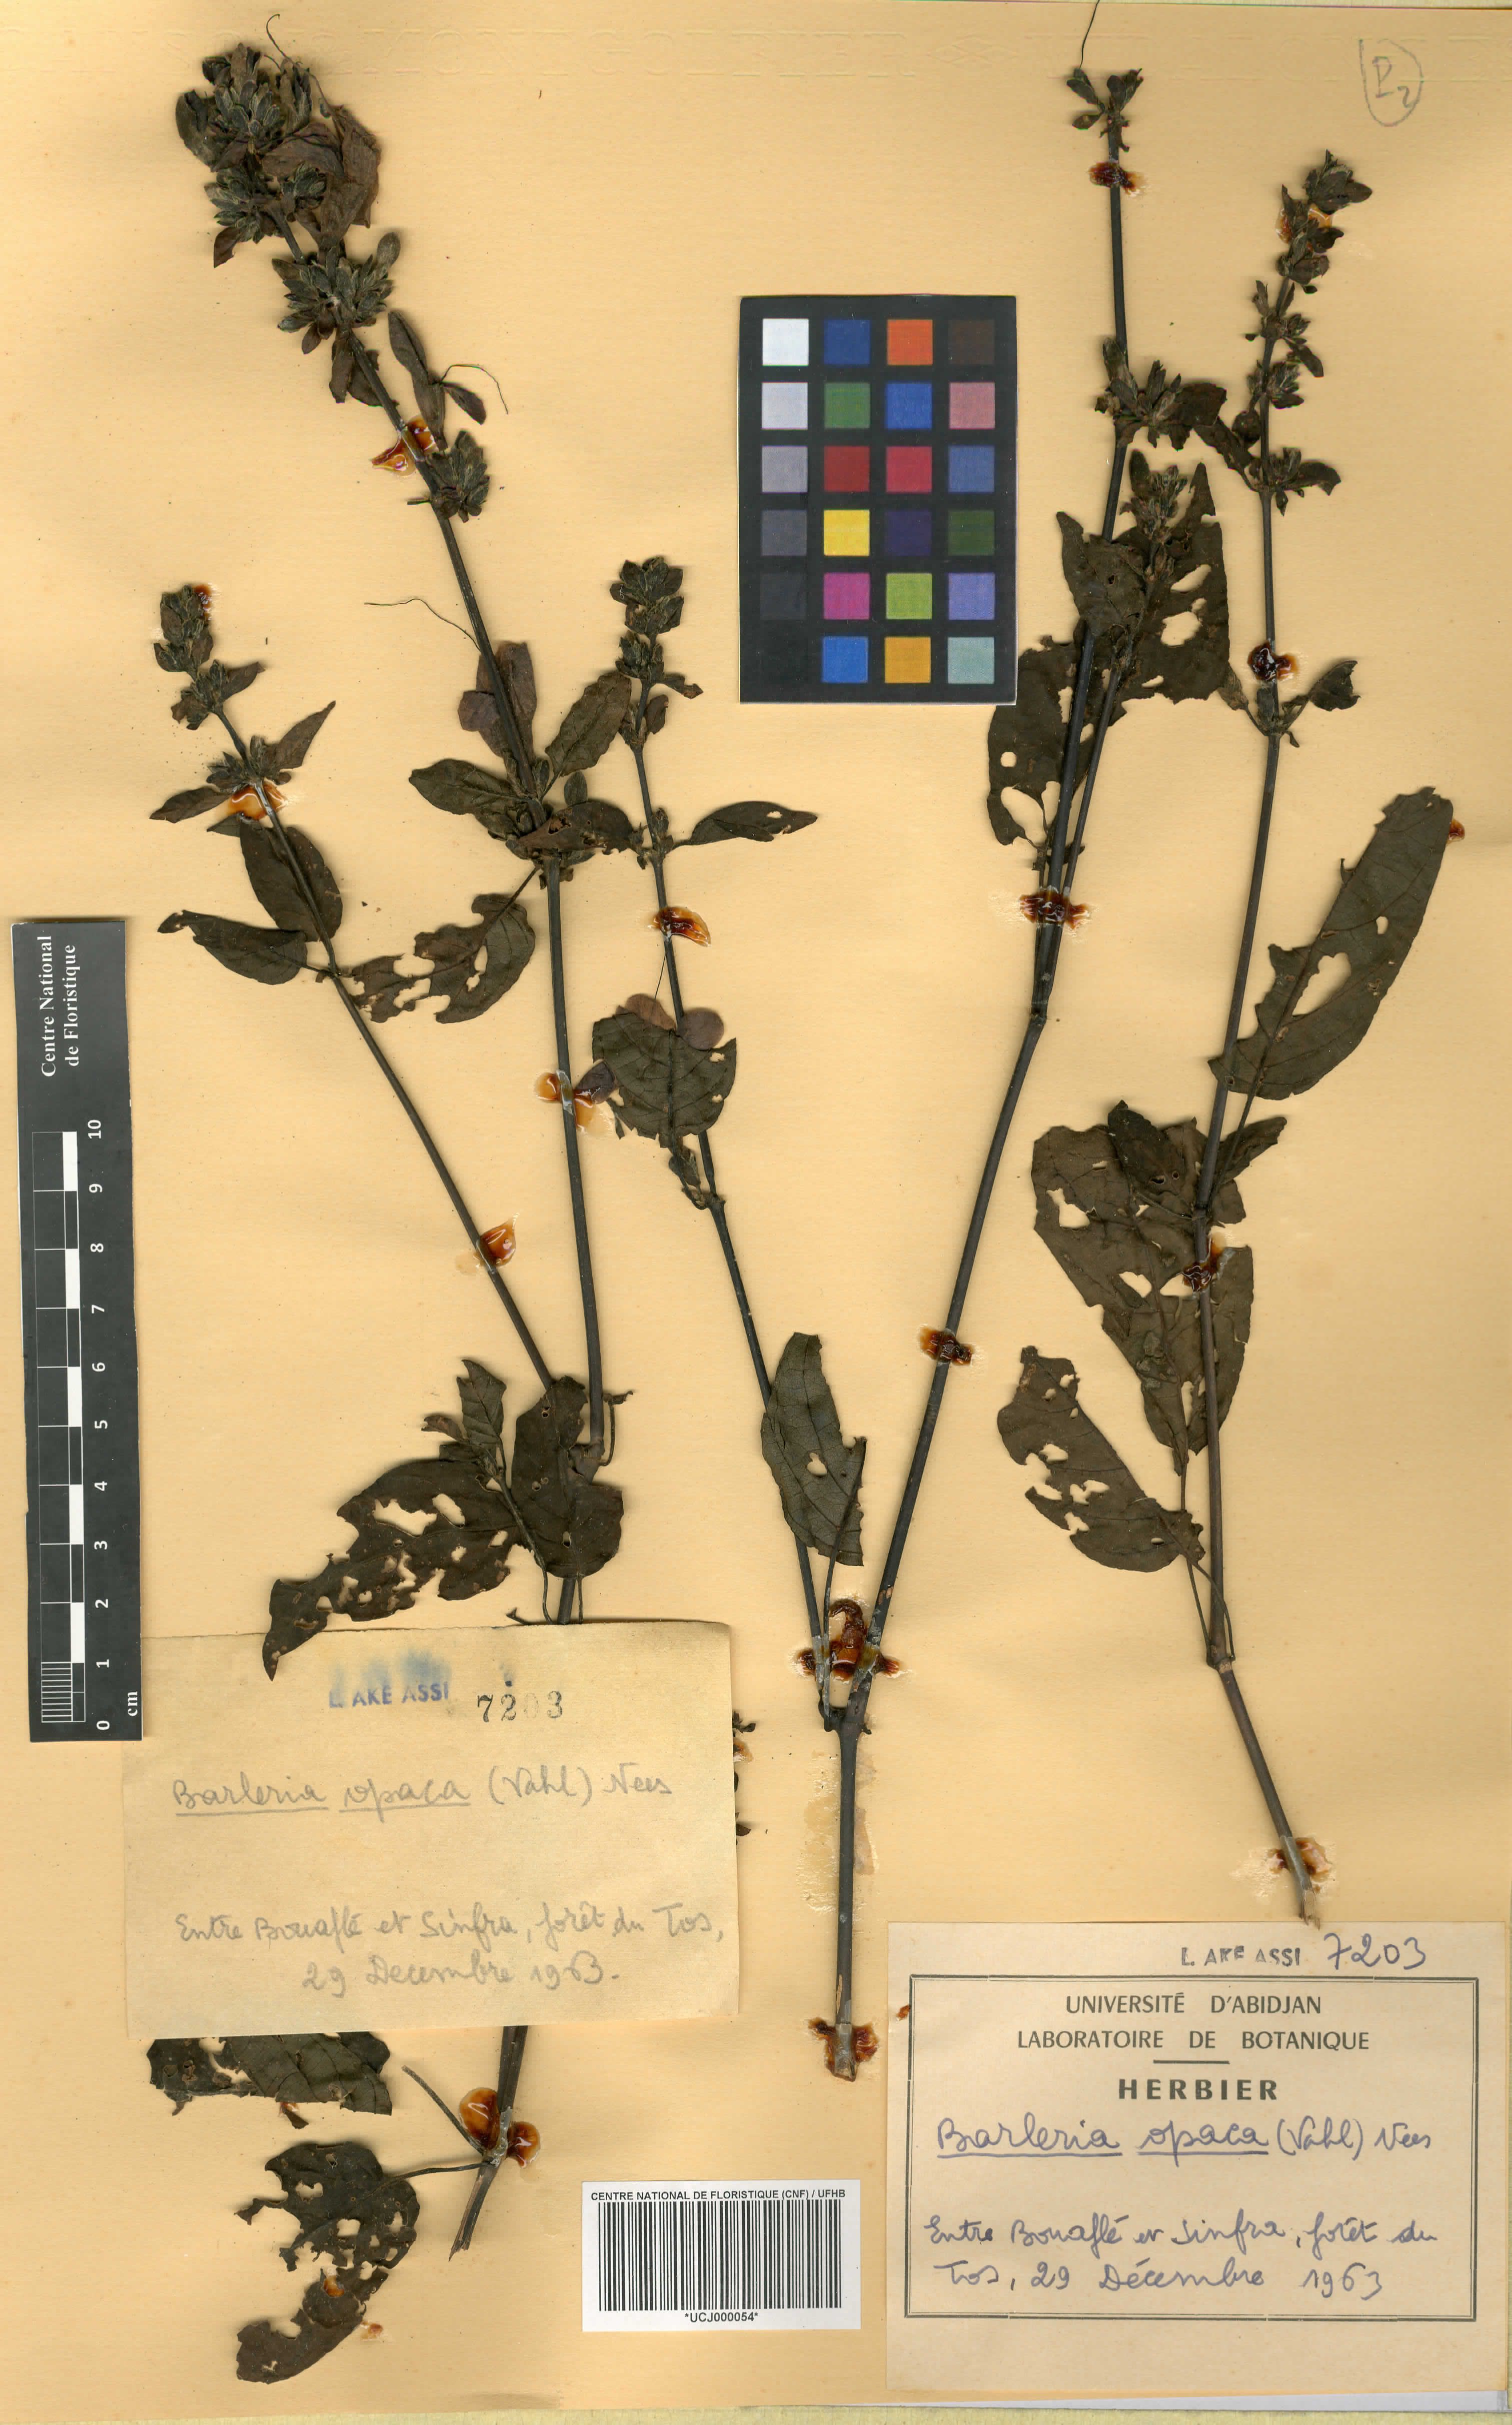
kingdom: Plantae
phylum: Tracheophyta
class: Magnoliopsida
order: Lamiales
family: Acanthaceae
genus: Barleria
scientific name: Barleria opaca
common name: Kwahu
